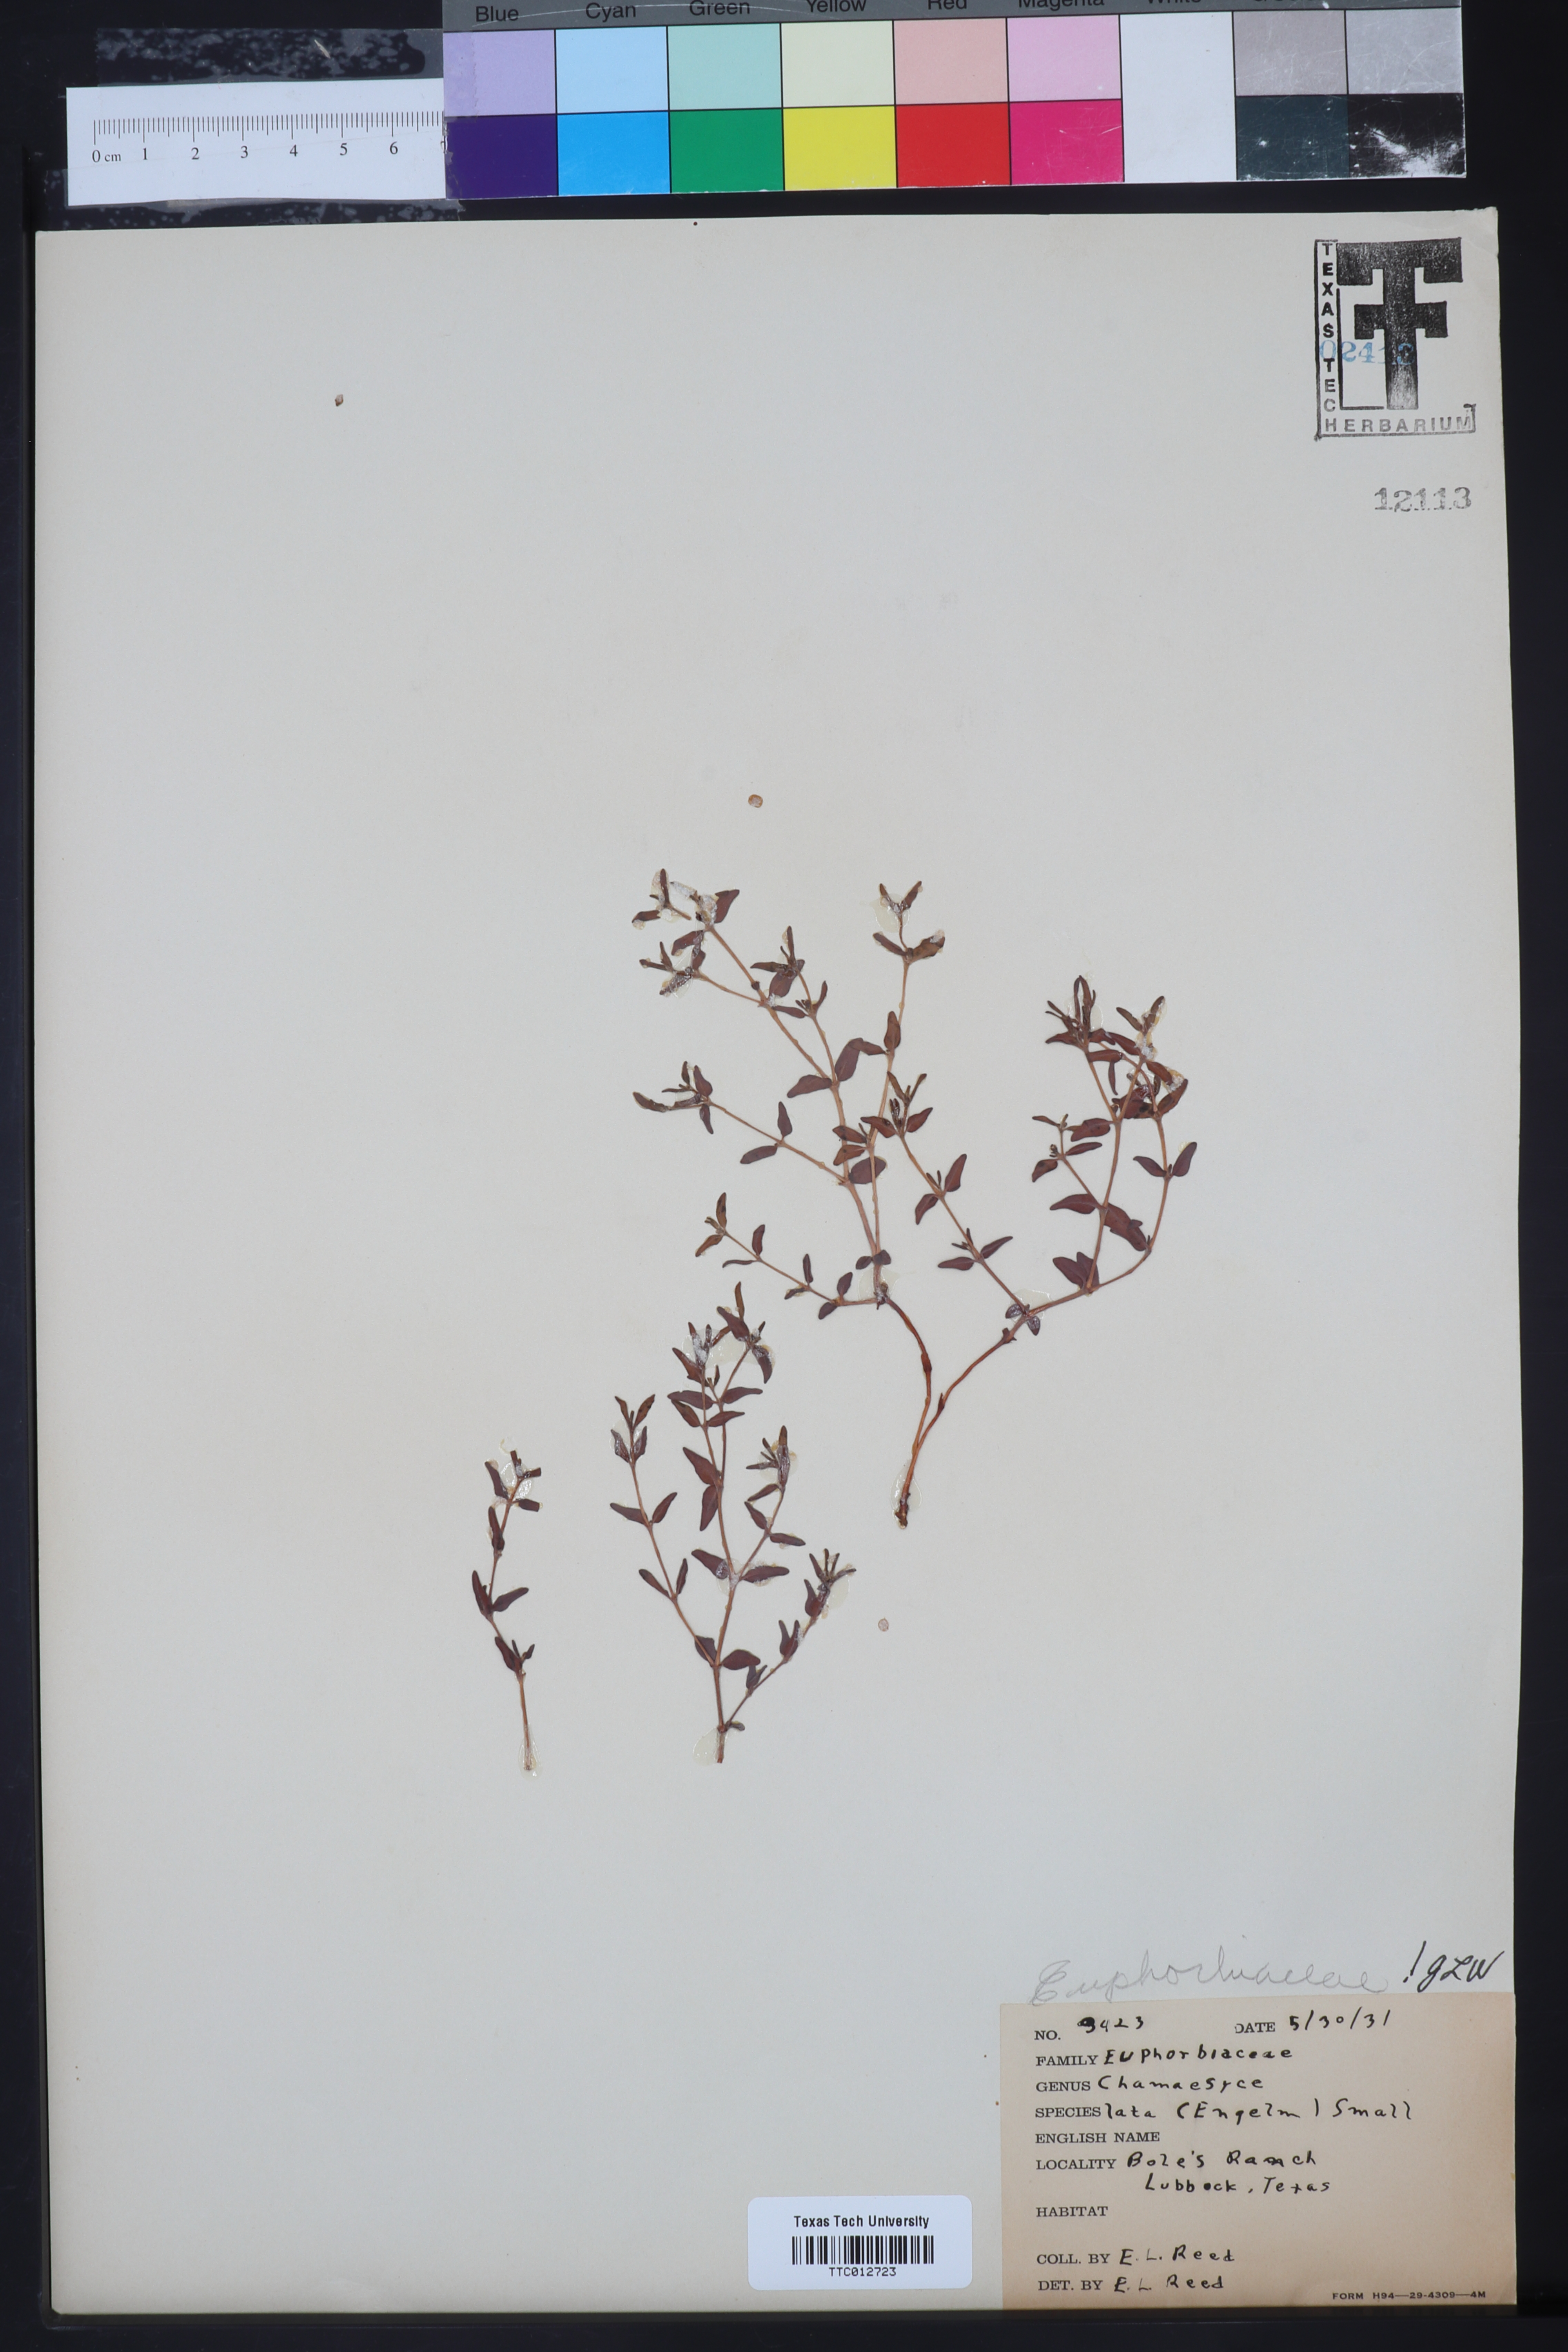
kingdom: Plantae
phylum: Tracheophyta
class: Magnoliopsida
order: Malpighiales
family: Euphorbiaceae
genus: Euphorbia
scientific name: Euphorbia lata
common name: Hoary euphorbia
